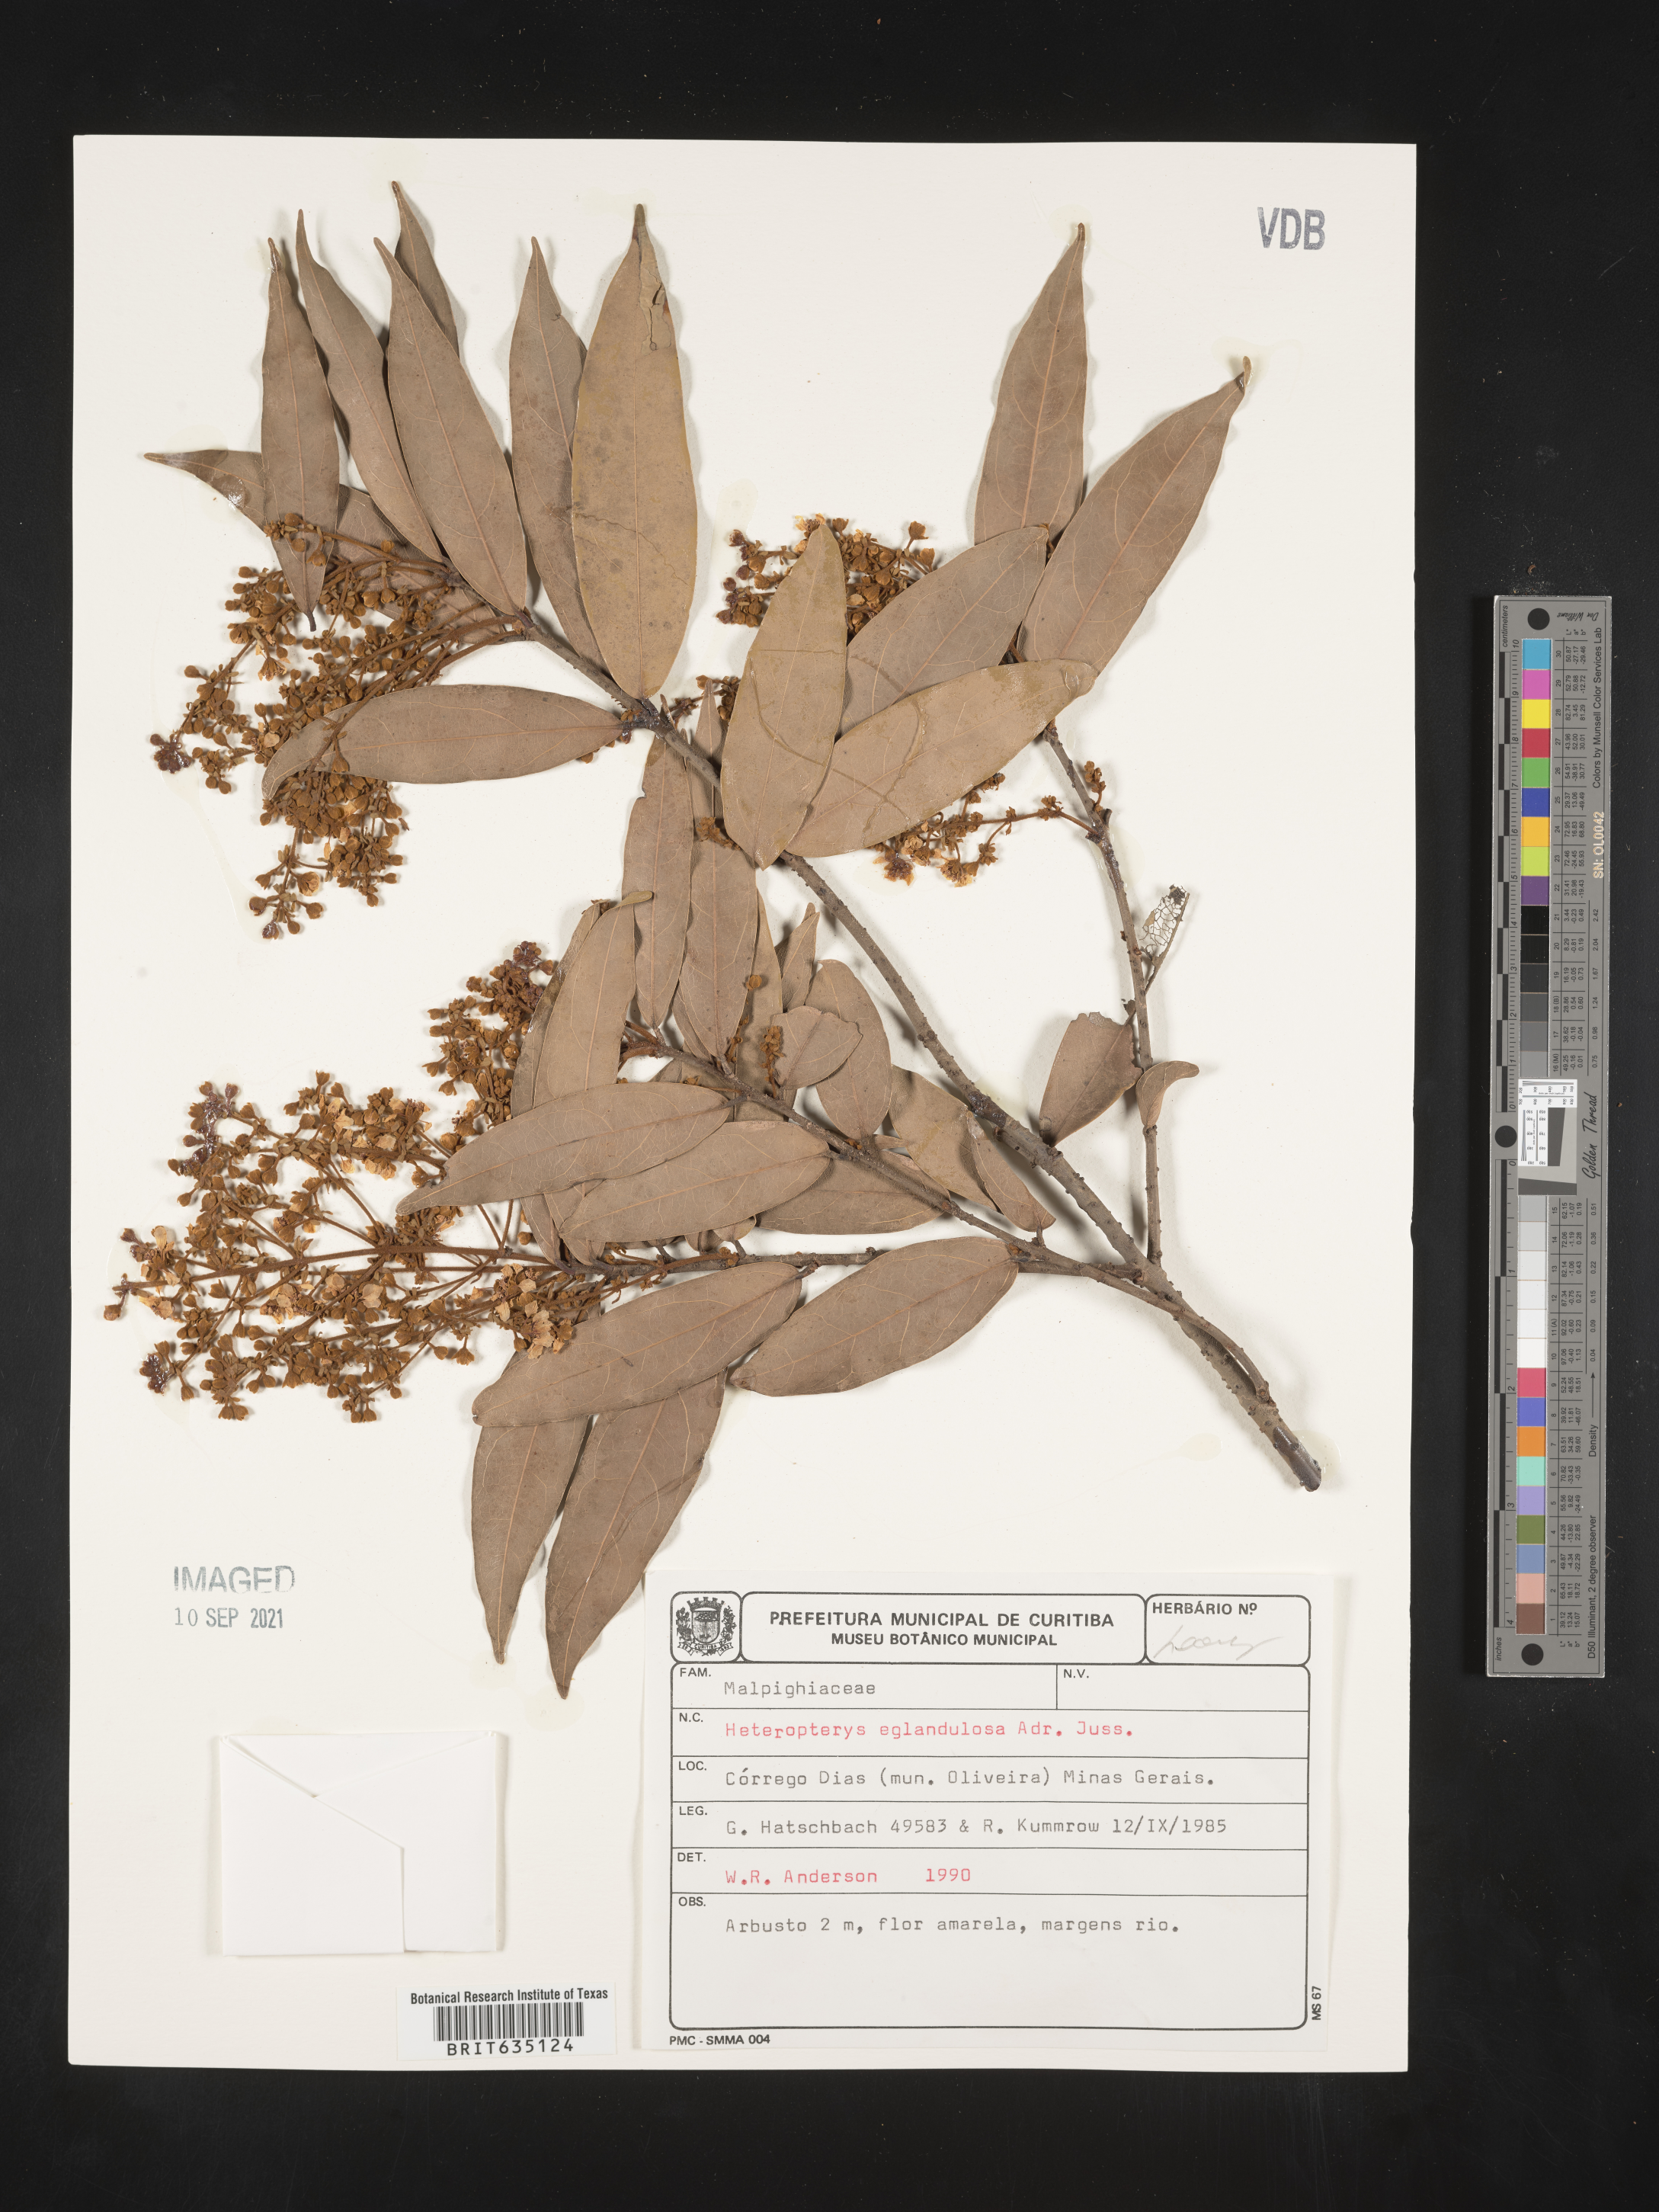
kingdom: Plantae
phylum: Tracheophyta
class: Polypodiopsida
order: Polypodiales
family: Pteridaceae
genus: Heteropteris
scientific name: Heteropteris
